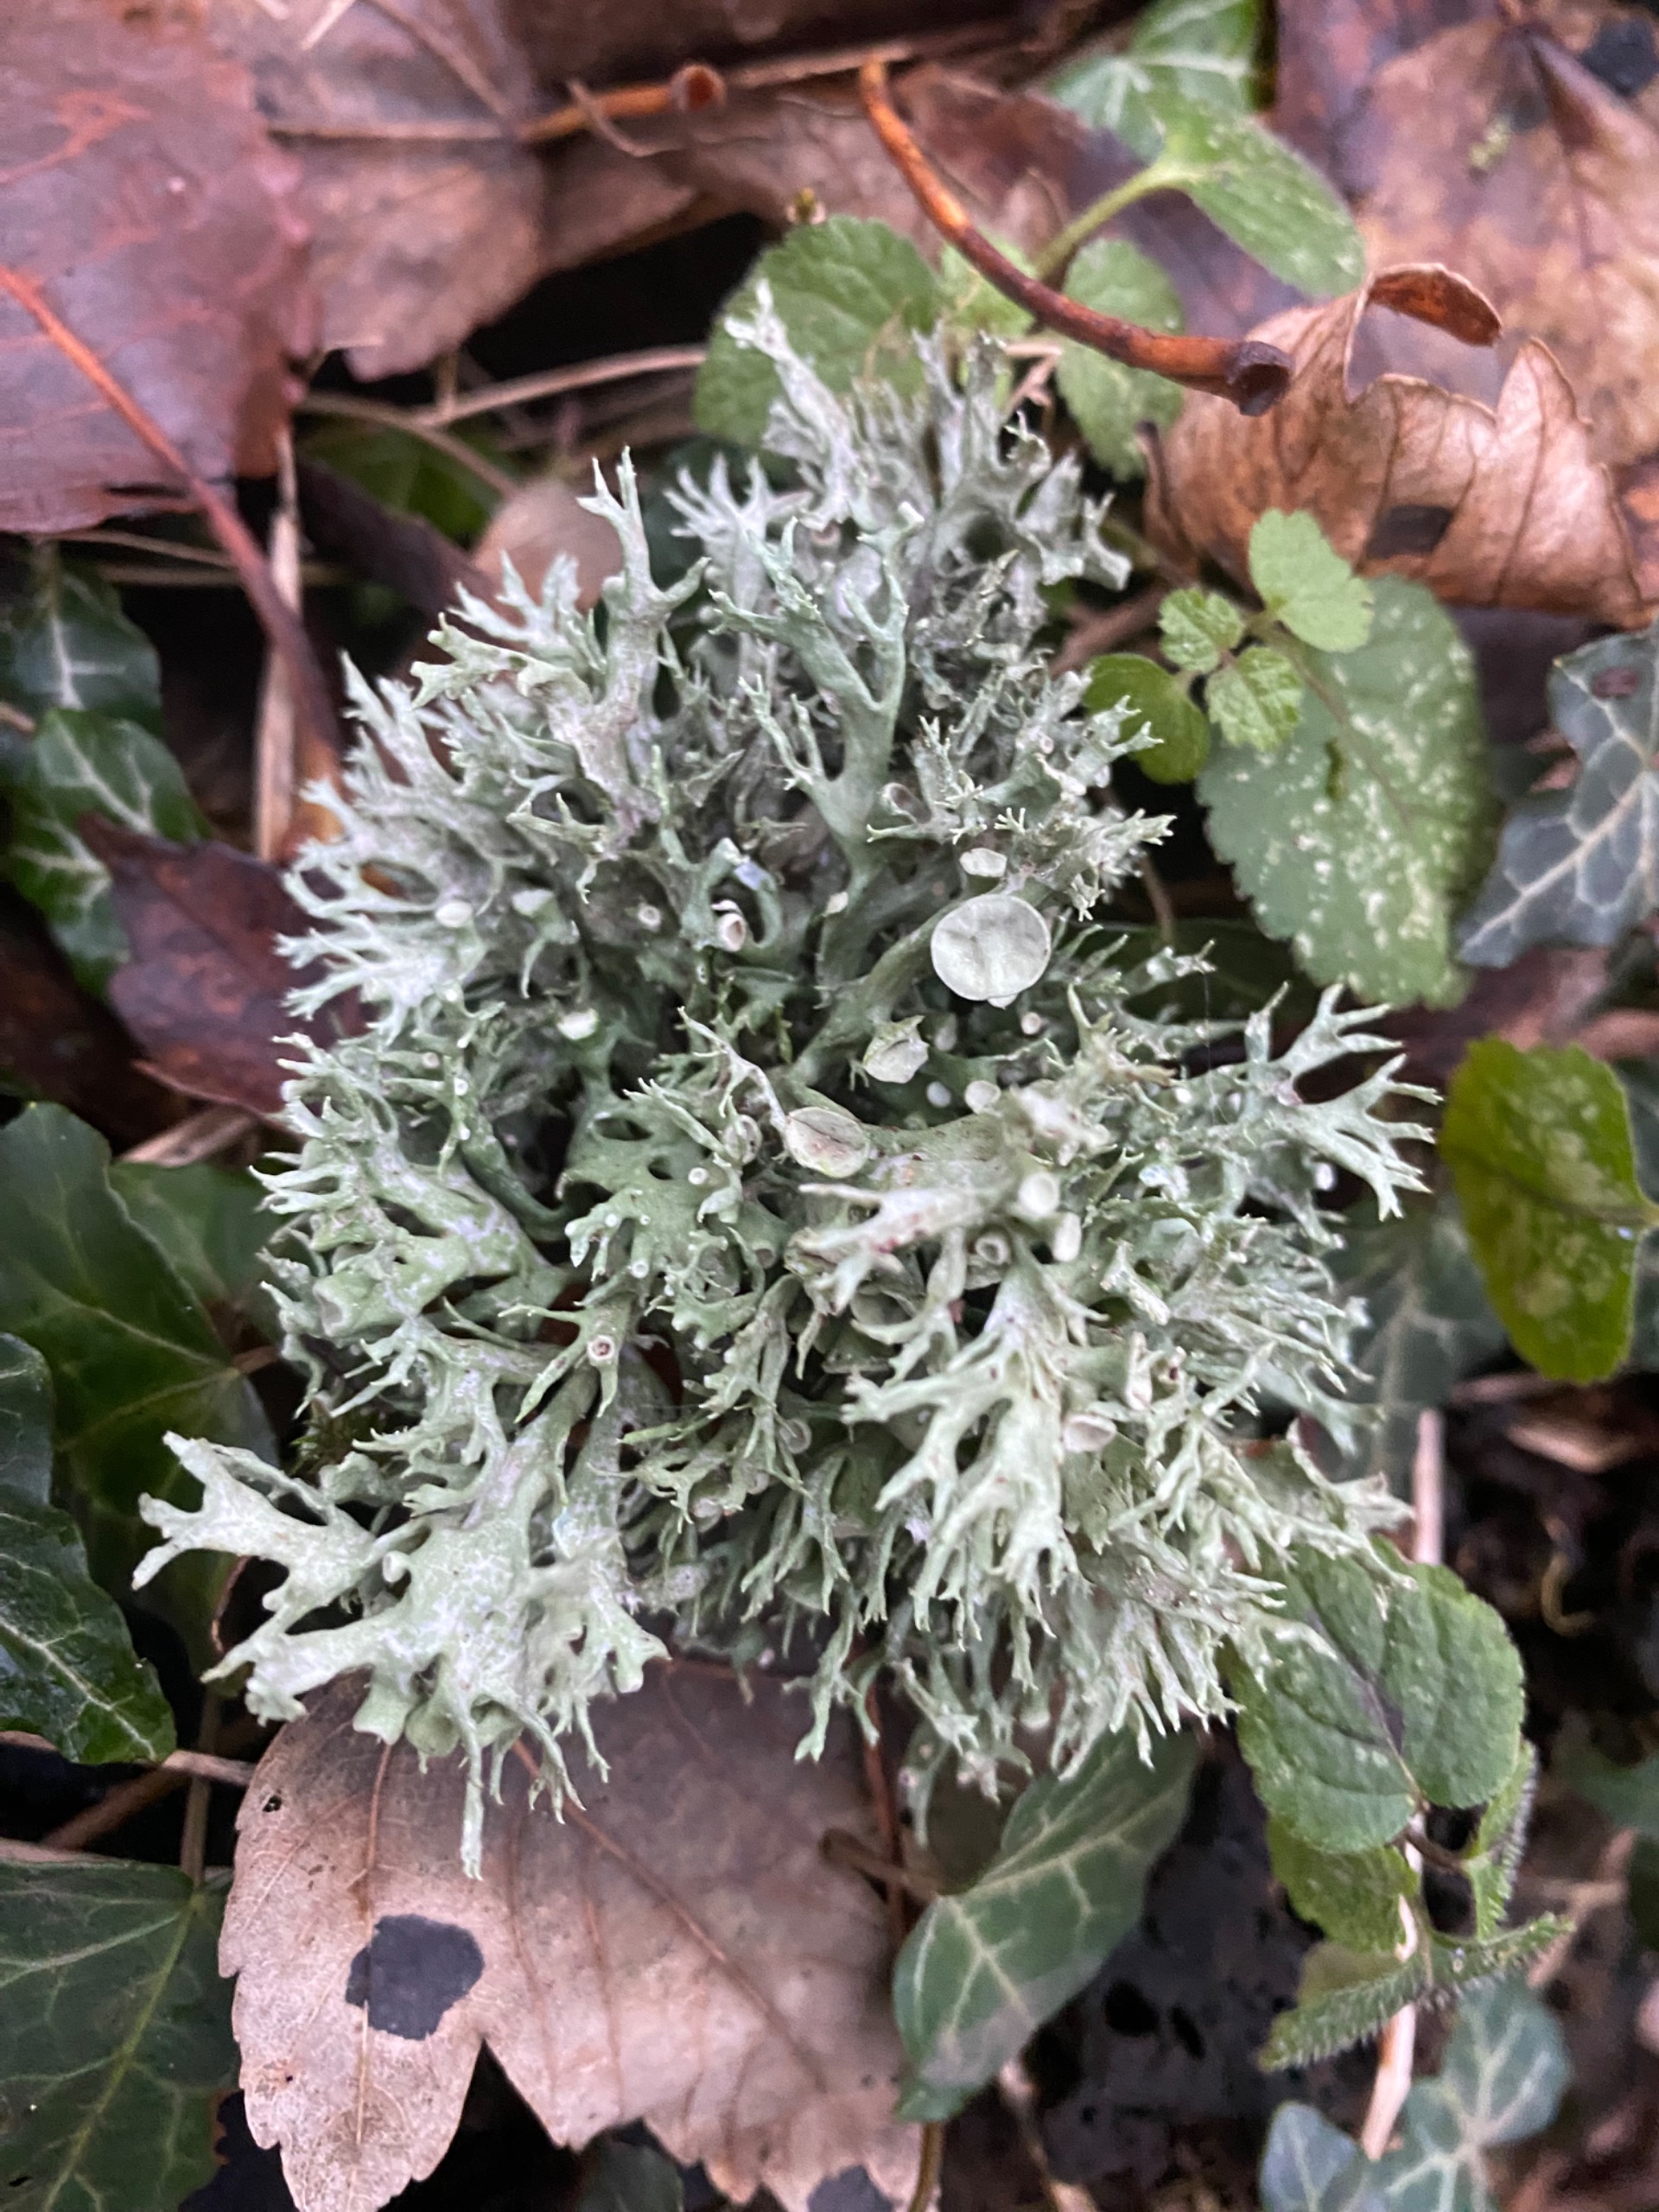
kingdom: Fungi
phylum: Ascomycota
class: Lecanoromycetes
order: Lecanorales
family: Ramalinaceae
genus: Ramalina
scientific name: Ramalina fastigiata
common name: Tue-grenlav
